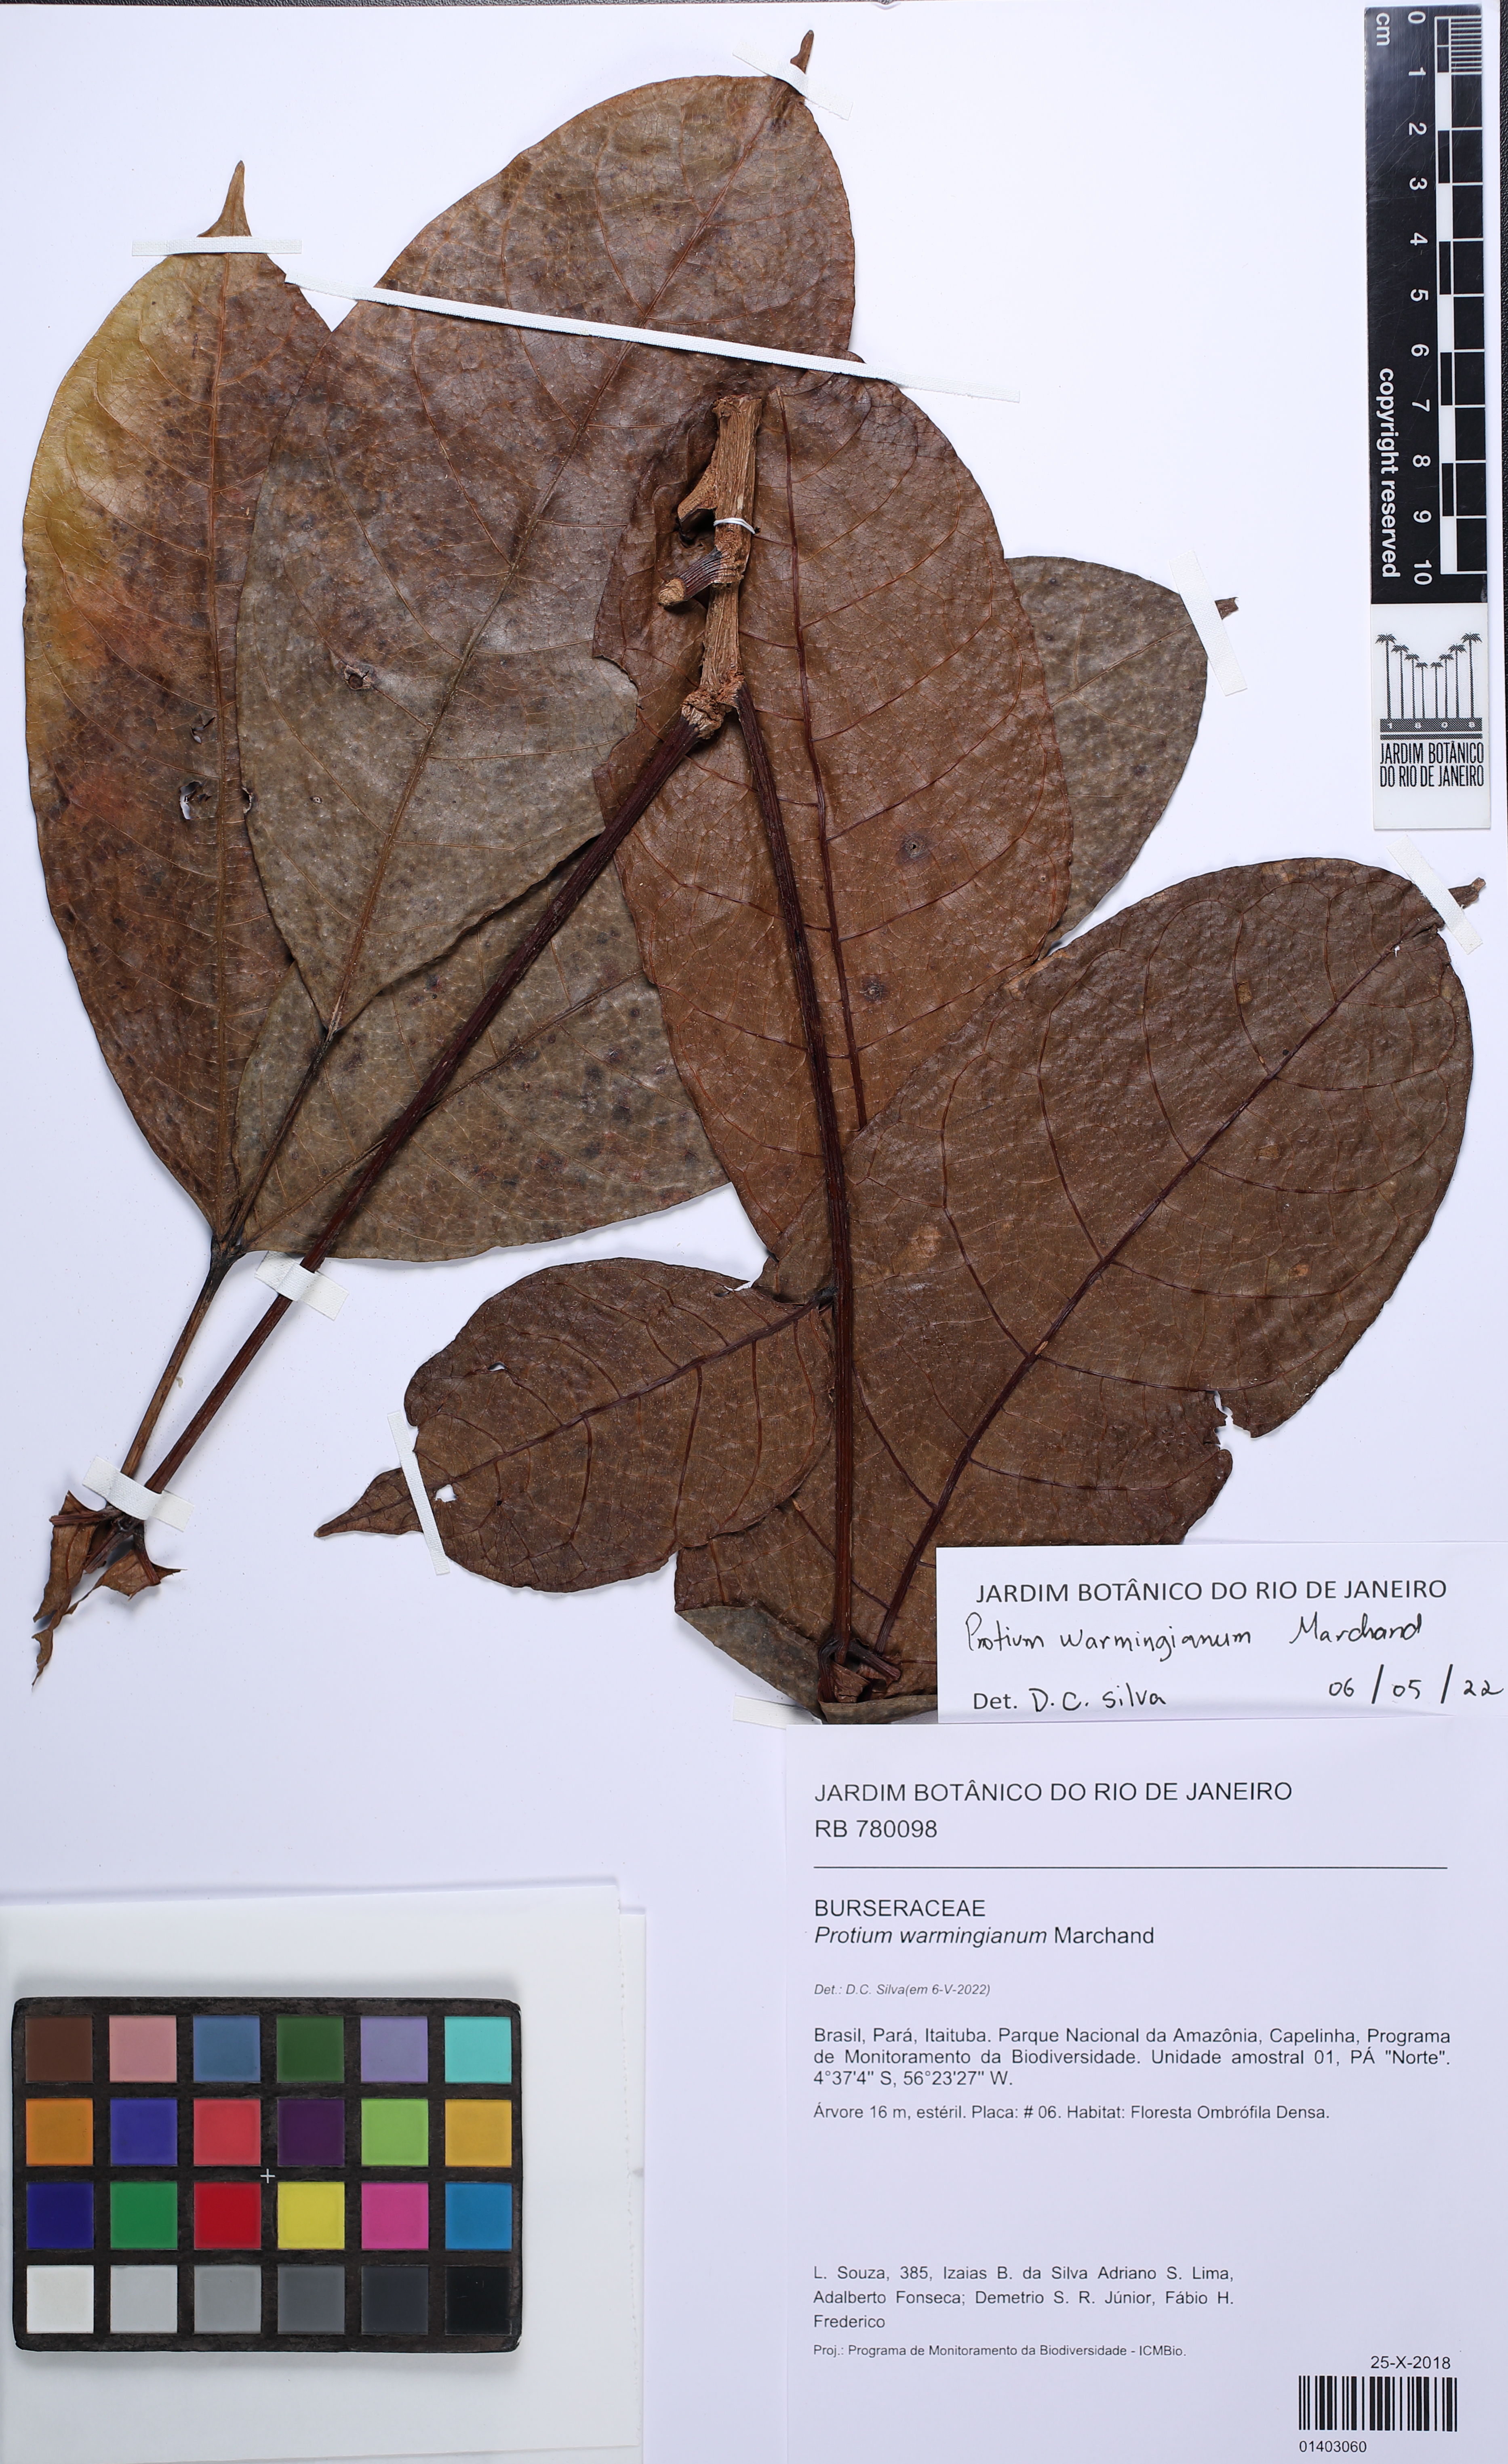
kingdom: Plantae
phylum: Tracheophyta
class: Magnoliopsida
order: Sapindales
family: Burseraceae
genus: Protium
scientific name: Protium warmingianum
